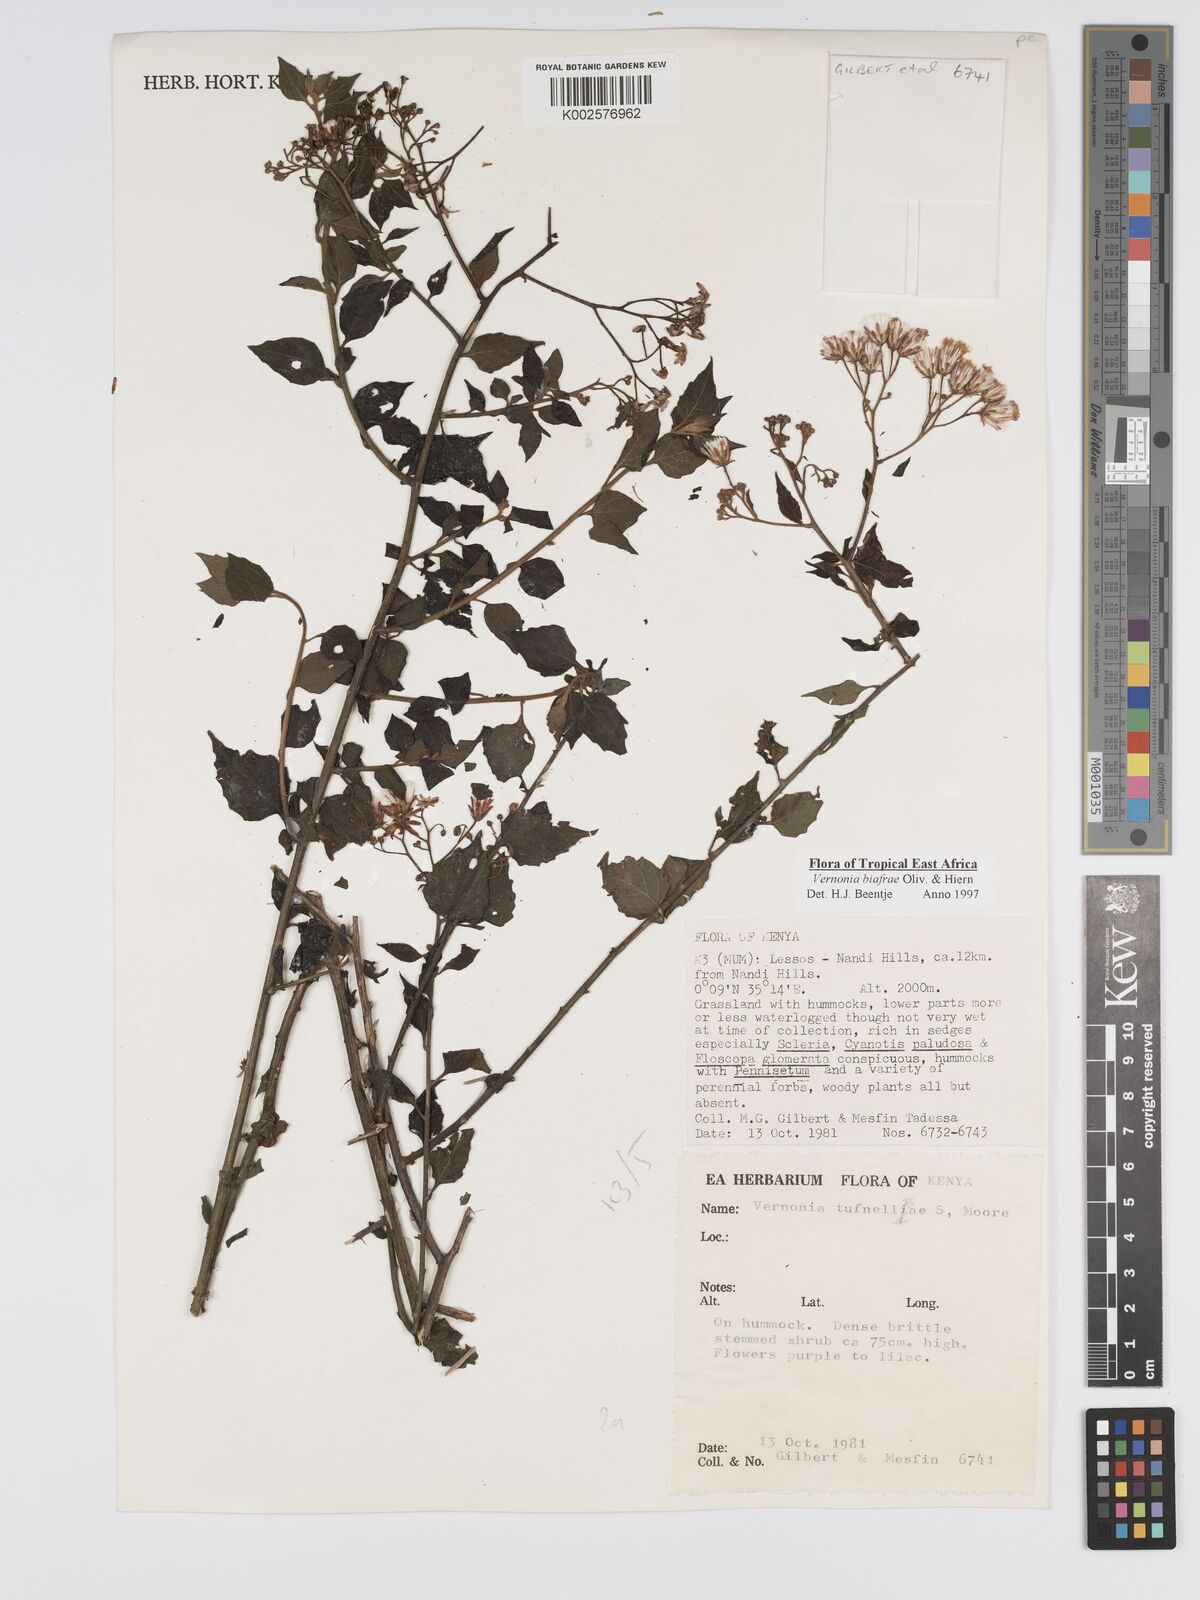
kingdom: Plantae
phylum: Tracheophyta
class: Magnoliopsida
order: Asterales
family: Asteraceae
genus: Distephanus
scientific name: Distephanus biafrae
